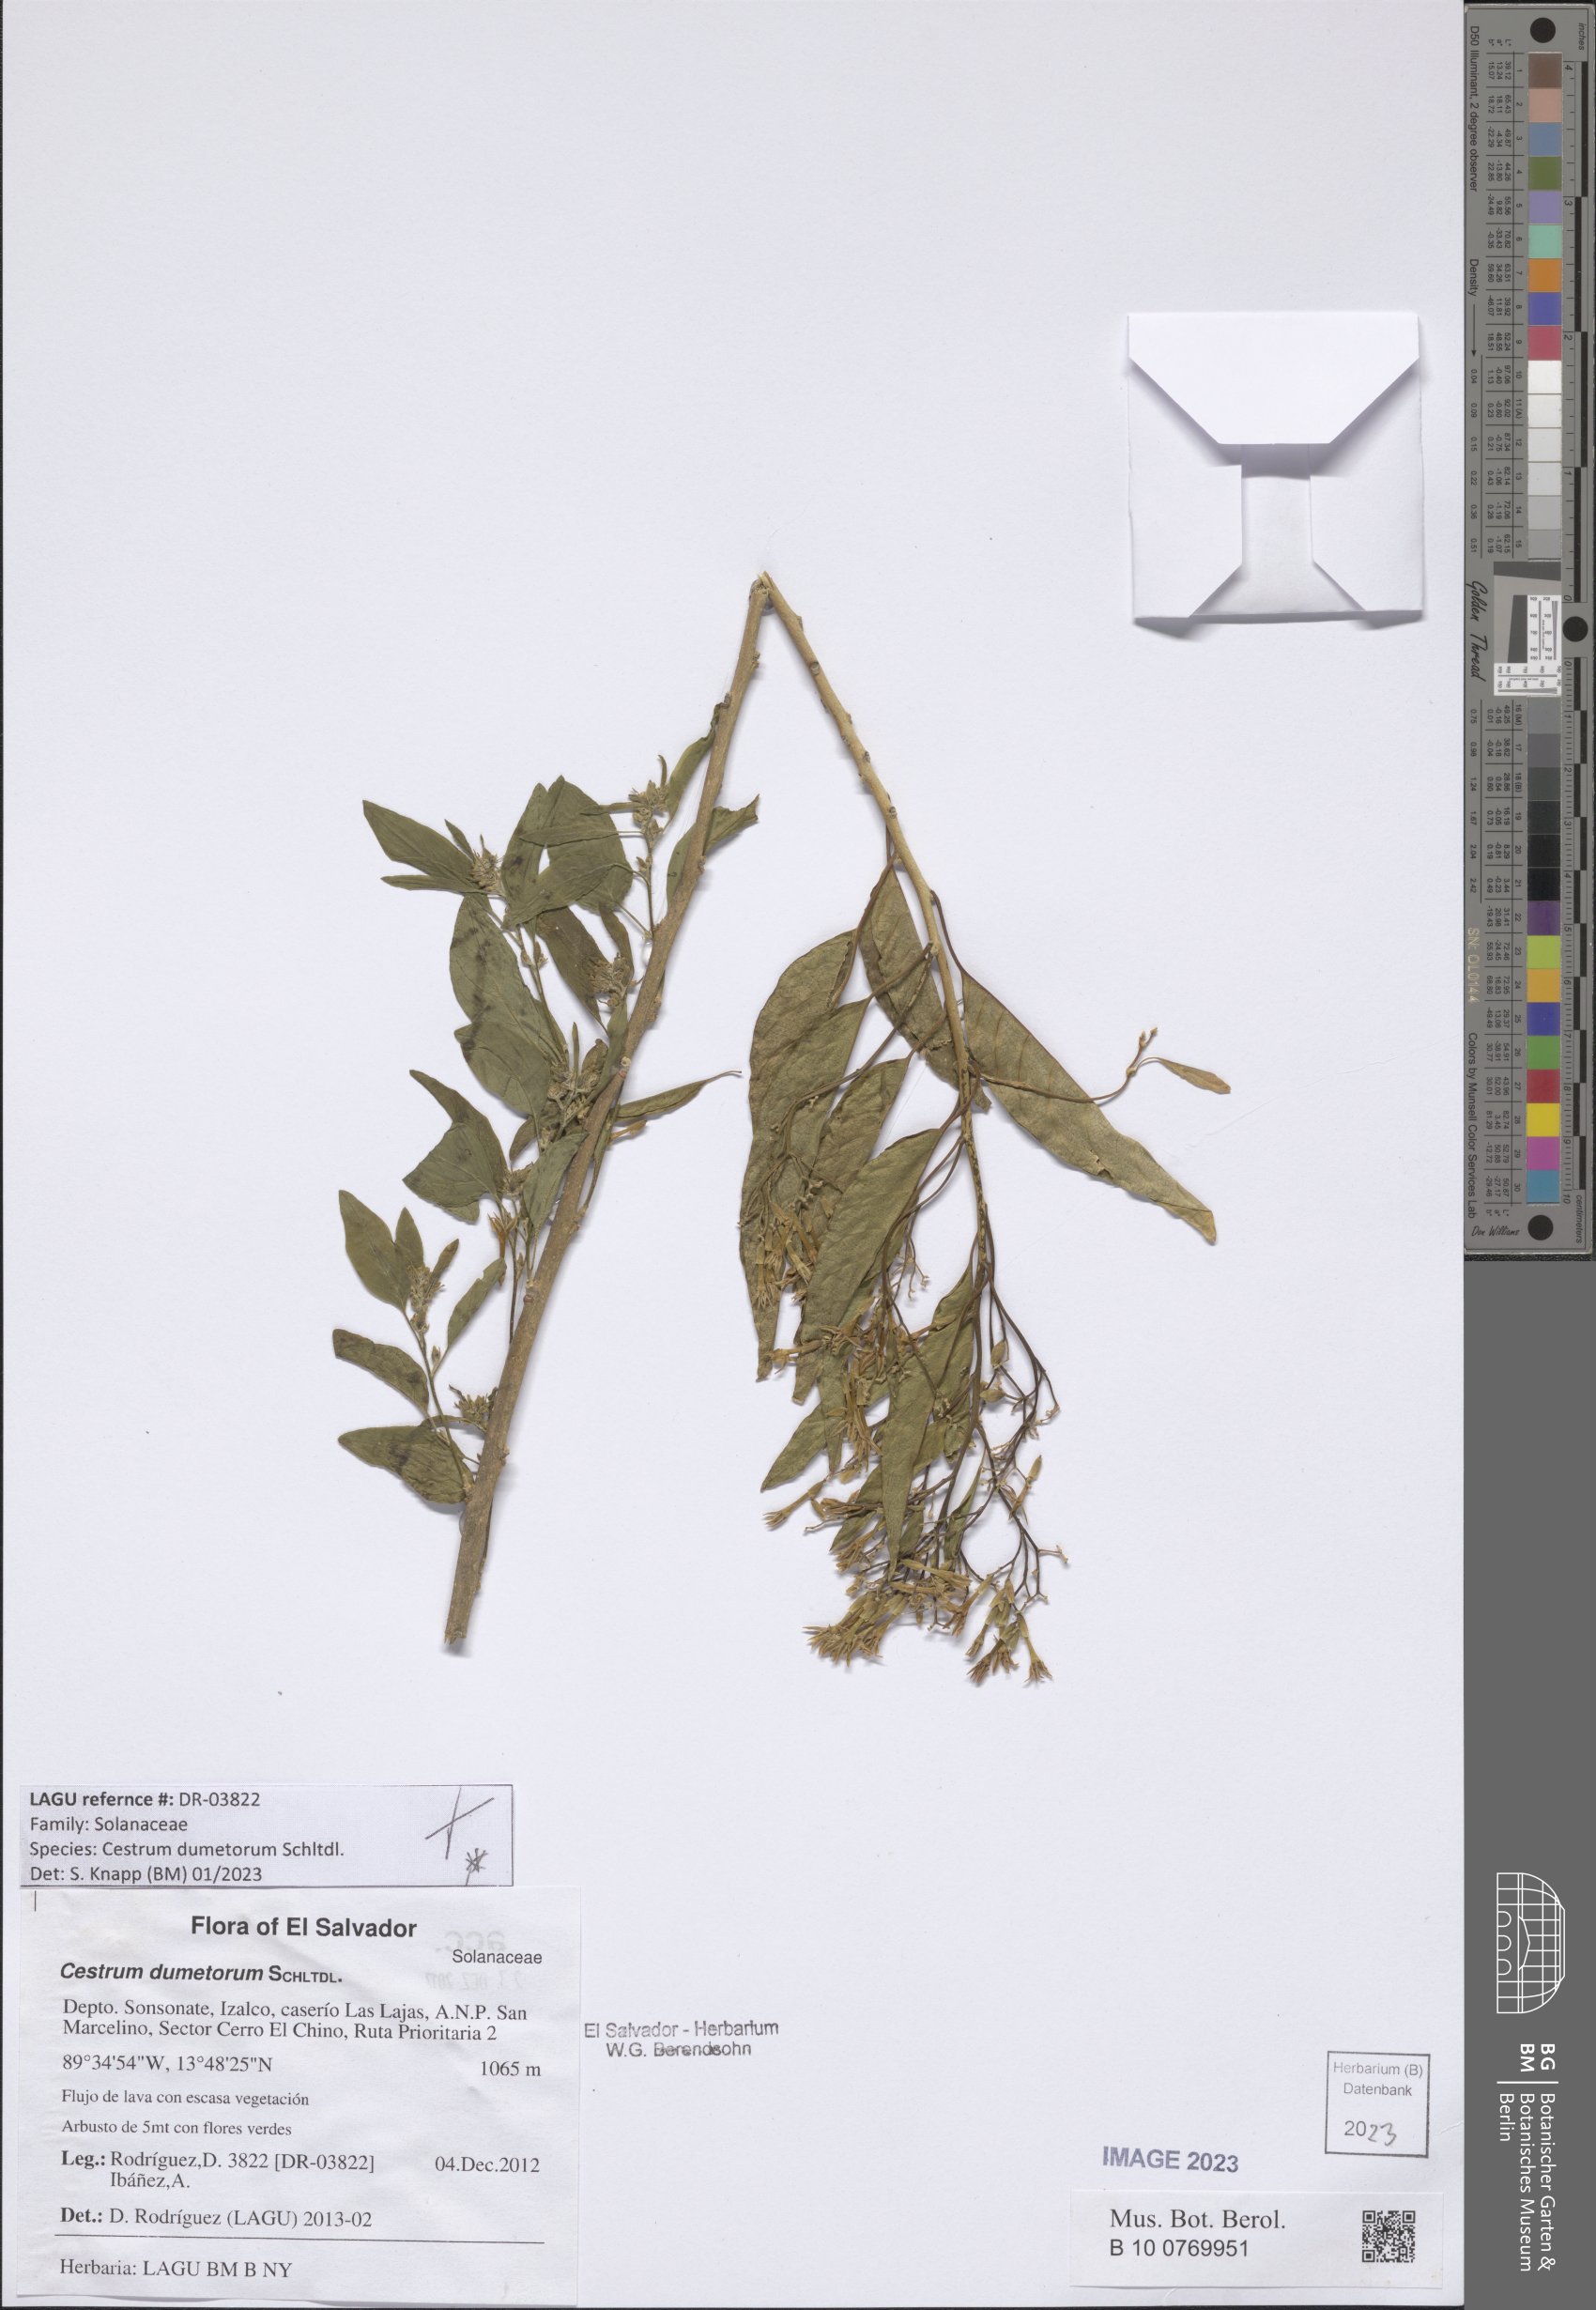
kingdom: Plantae
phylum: Tracheophyta
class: Magnoliopsida
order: Solanales
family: Solanaceae
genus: Cestrum
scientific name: Cestrum dumetorum
